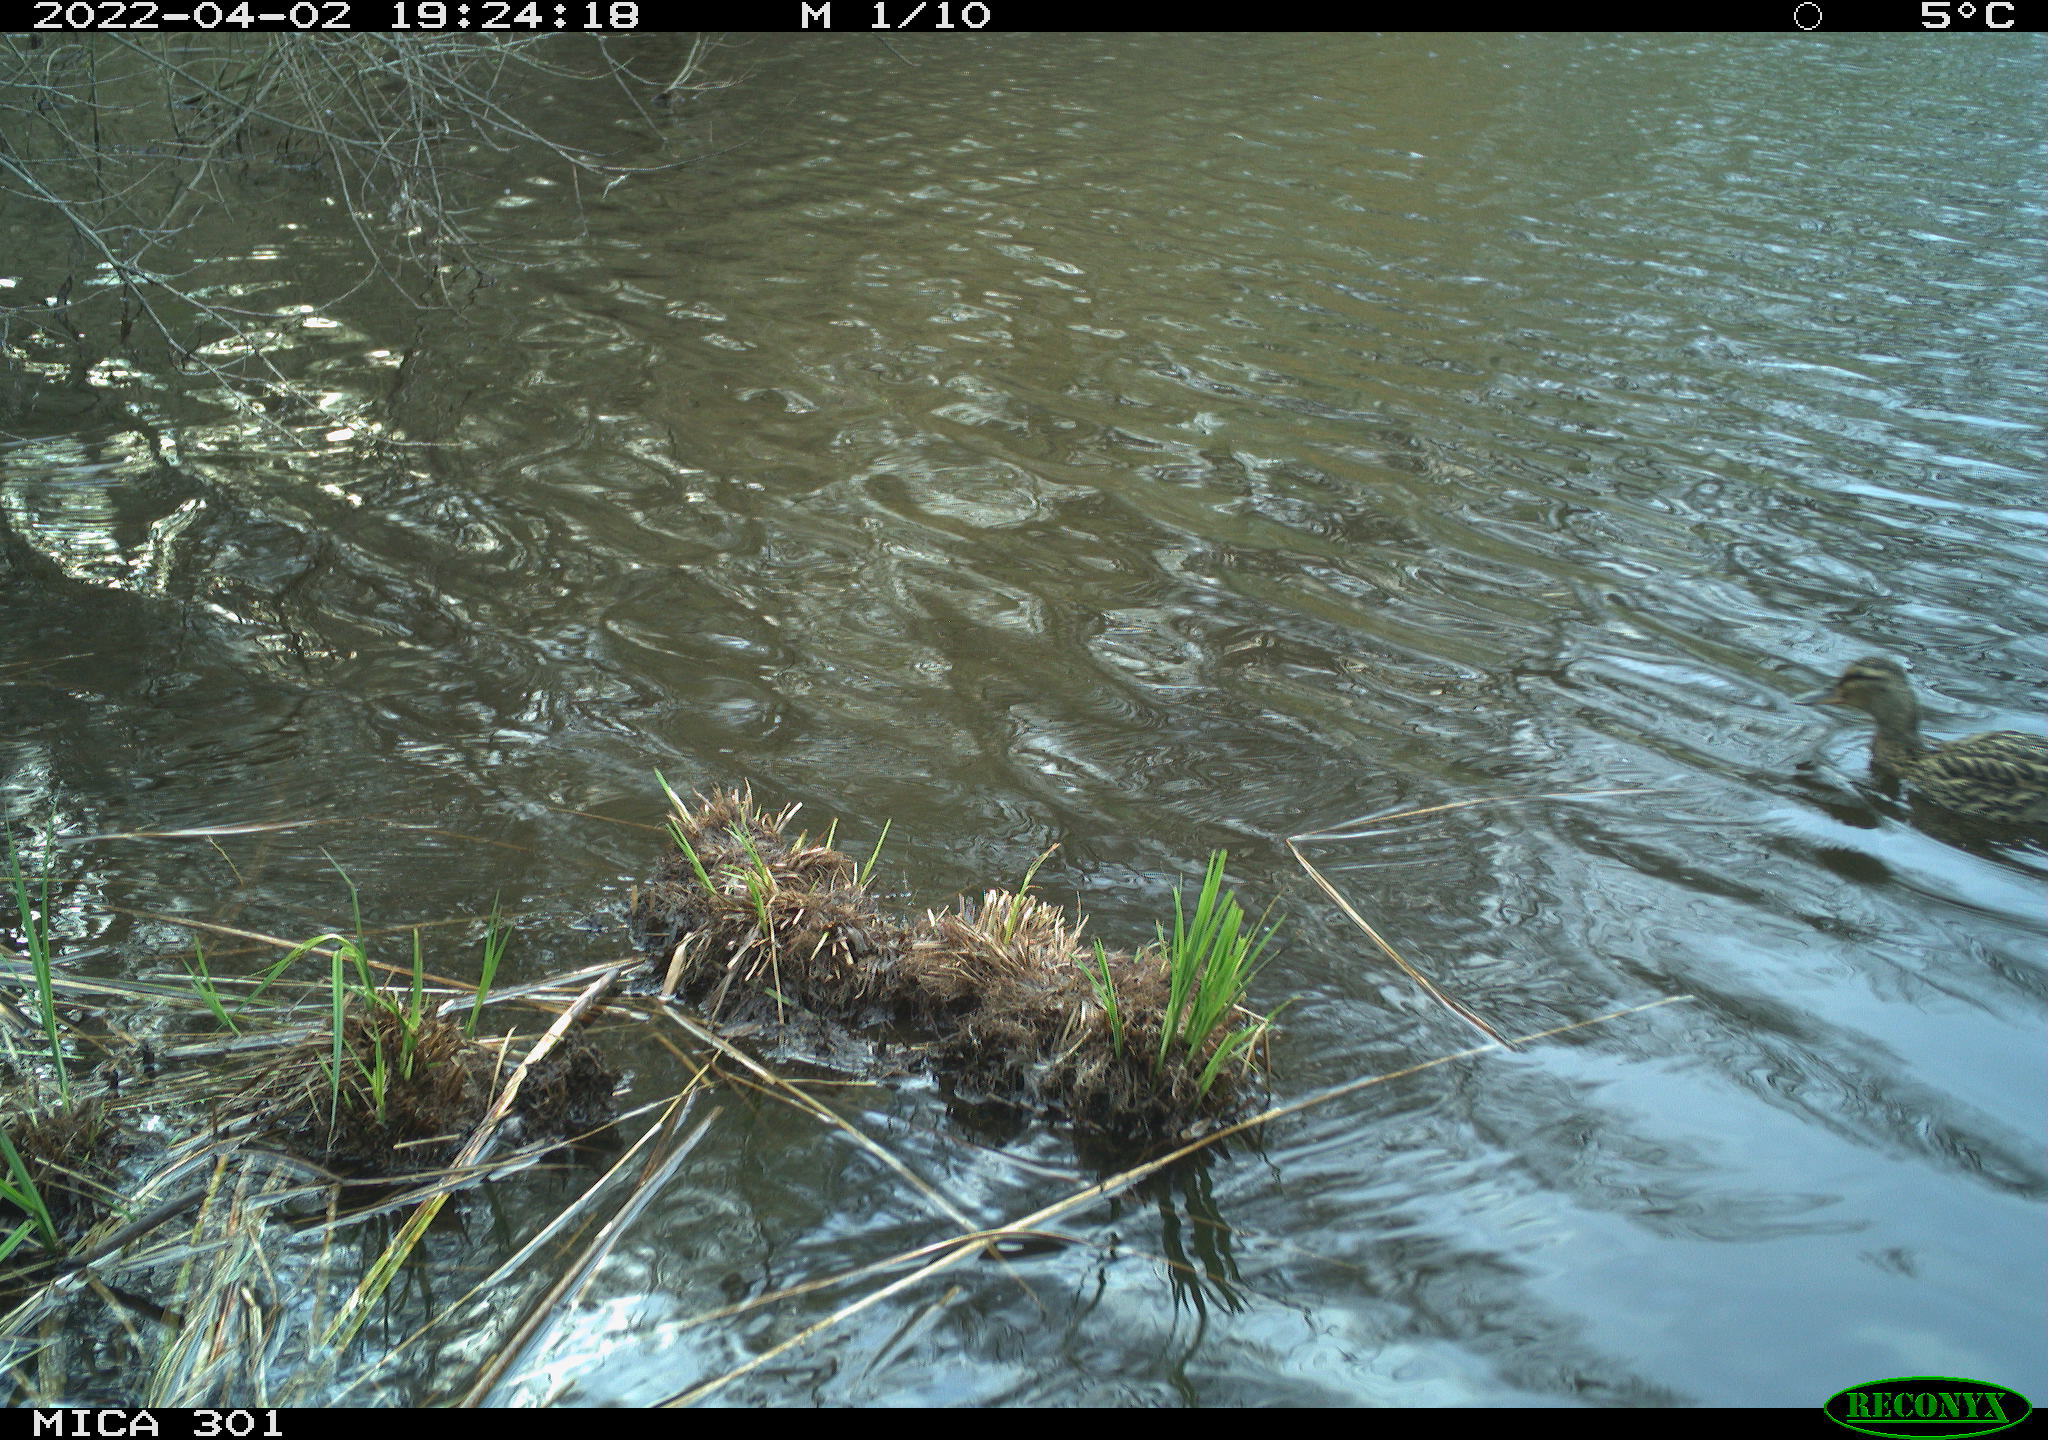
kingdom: Animalia
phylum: Chordata
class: Aves
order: Anseriformes
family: Anatidae
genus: Anas
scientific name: Anas platyrhynchos
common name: Mallard
